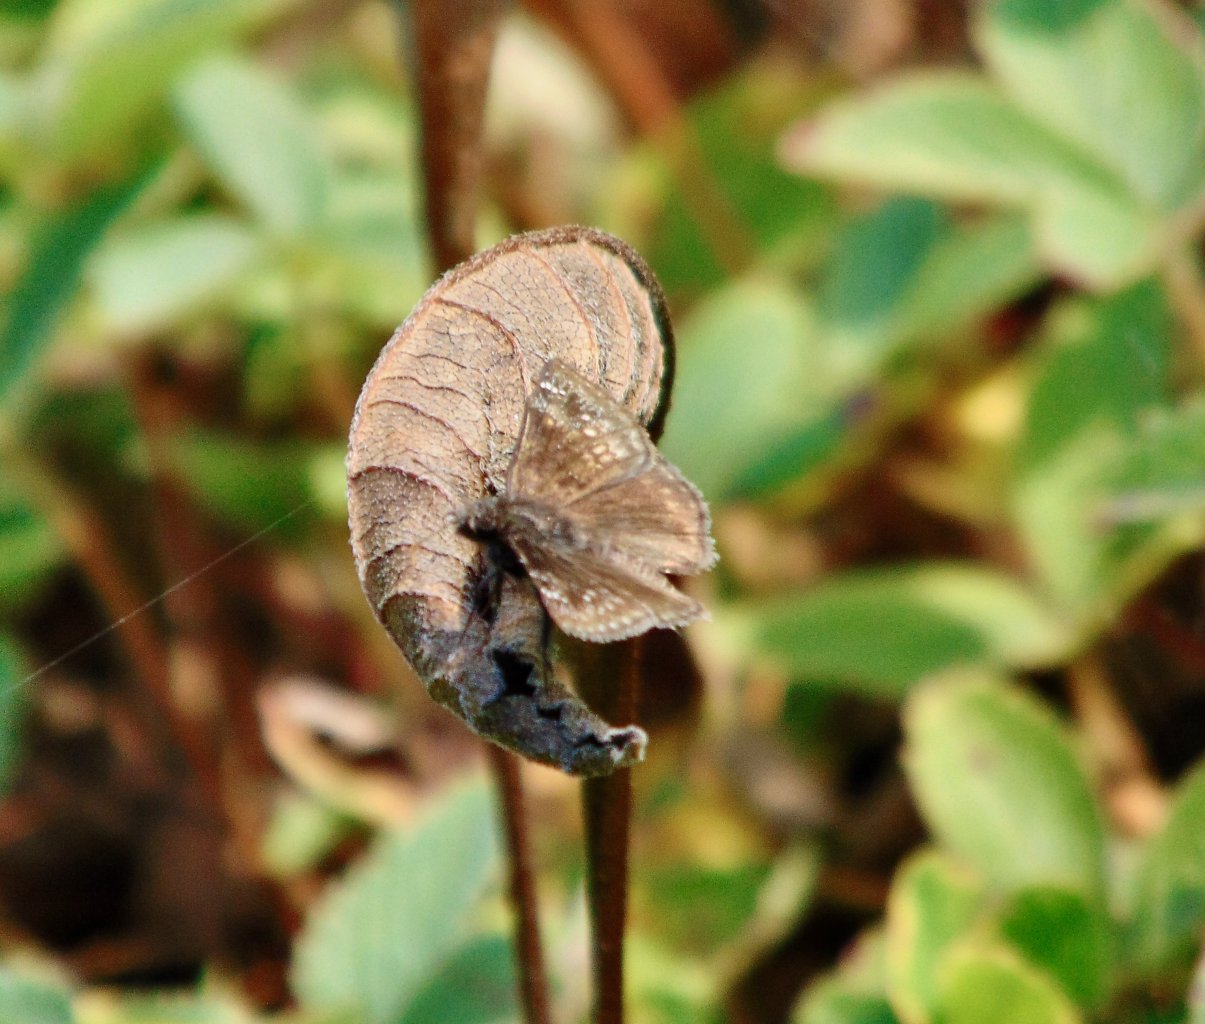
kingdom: Animalia
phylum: Arthropoda
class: Insecta
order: Lepidoptera
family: Hesperiidae
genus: Gesta
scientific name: Gesta
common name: Wild Indigo Duskywing
